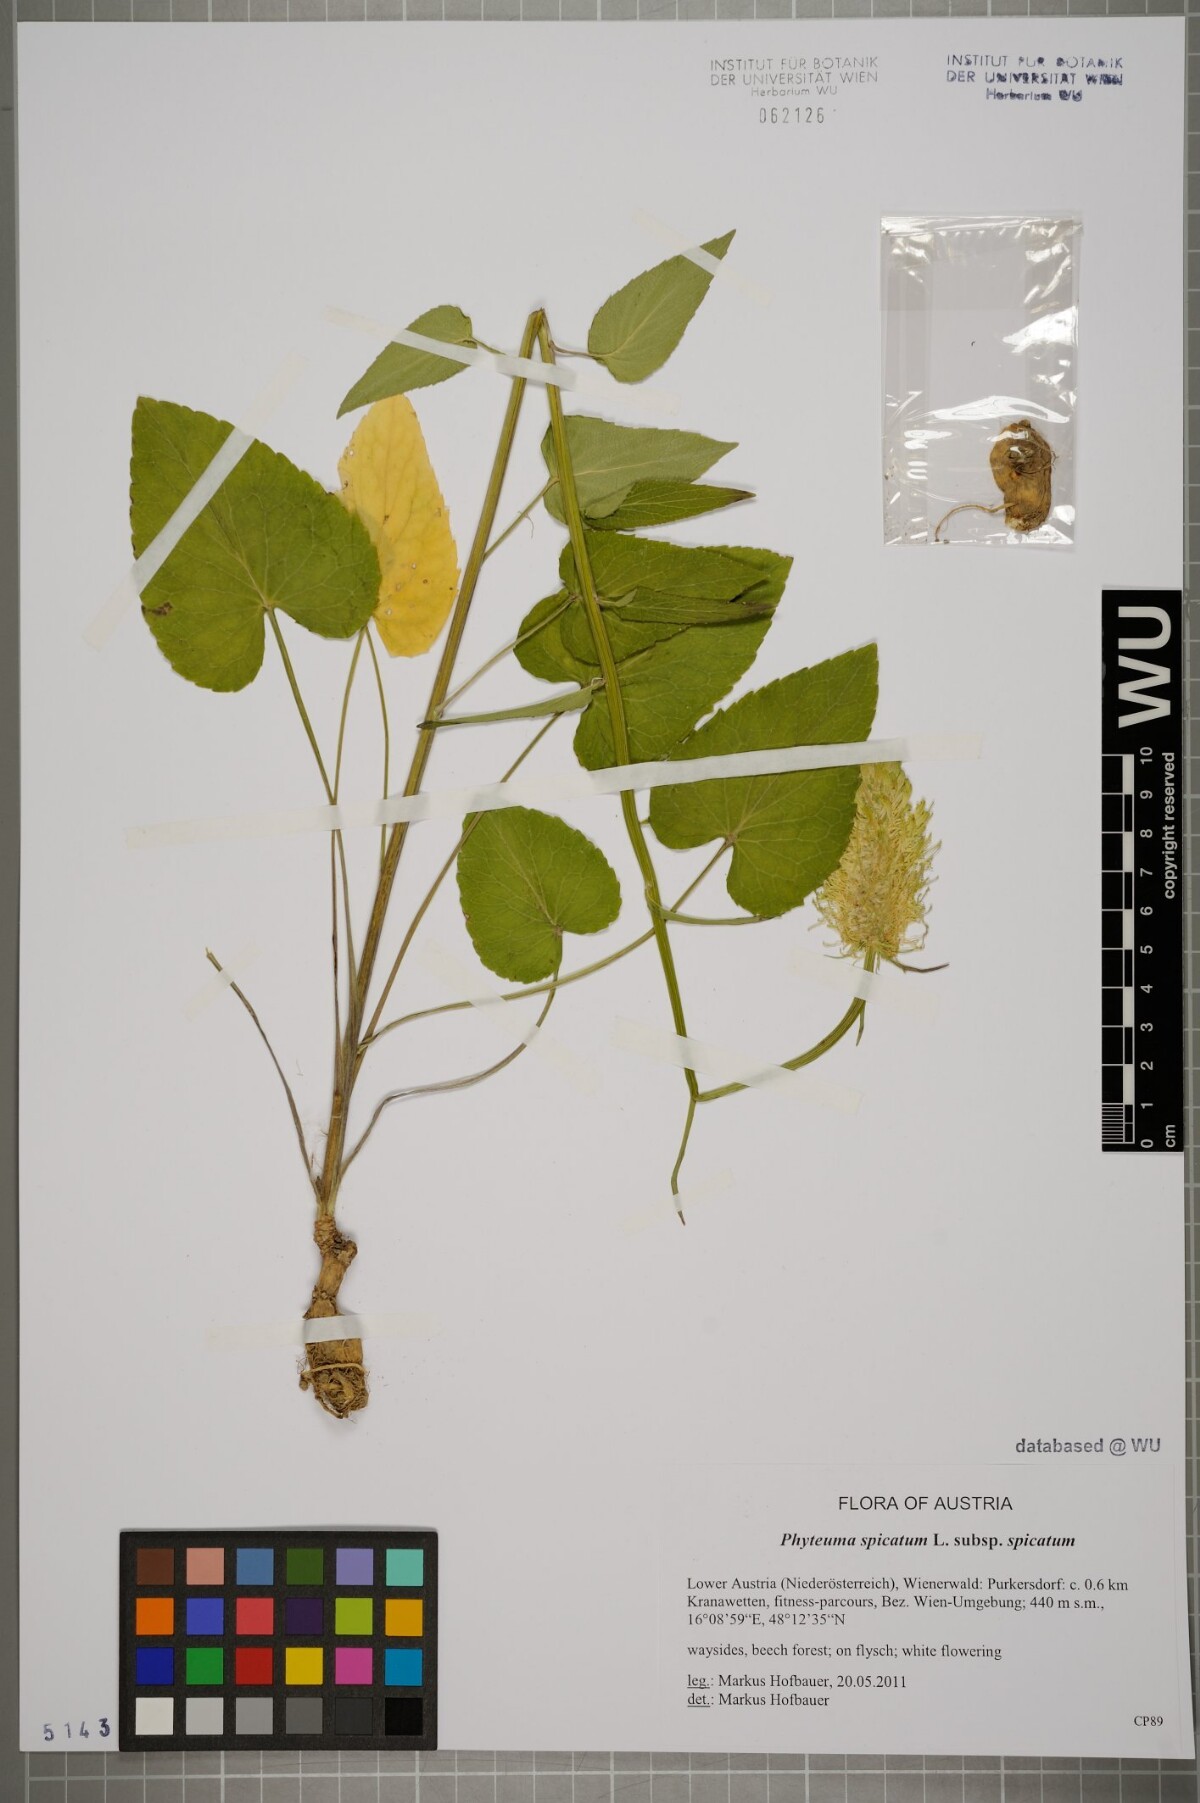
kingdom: Plantae
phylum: Tracheophyta
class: Magnoliopsida
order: Asterales
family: Campanulaceae
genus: Phyteuma
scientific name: Phyteuma spicatum
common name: Spiked rampion
